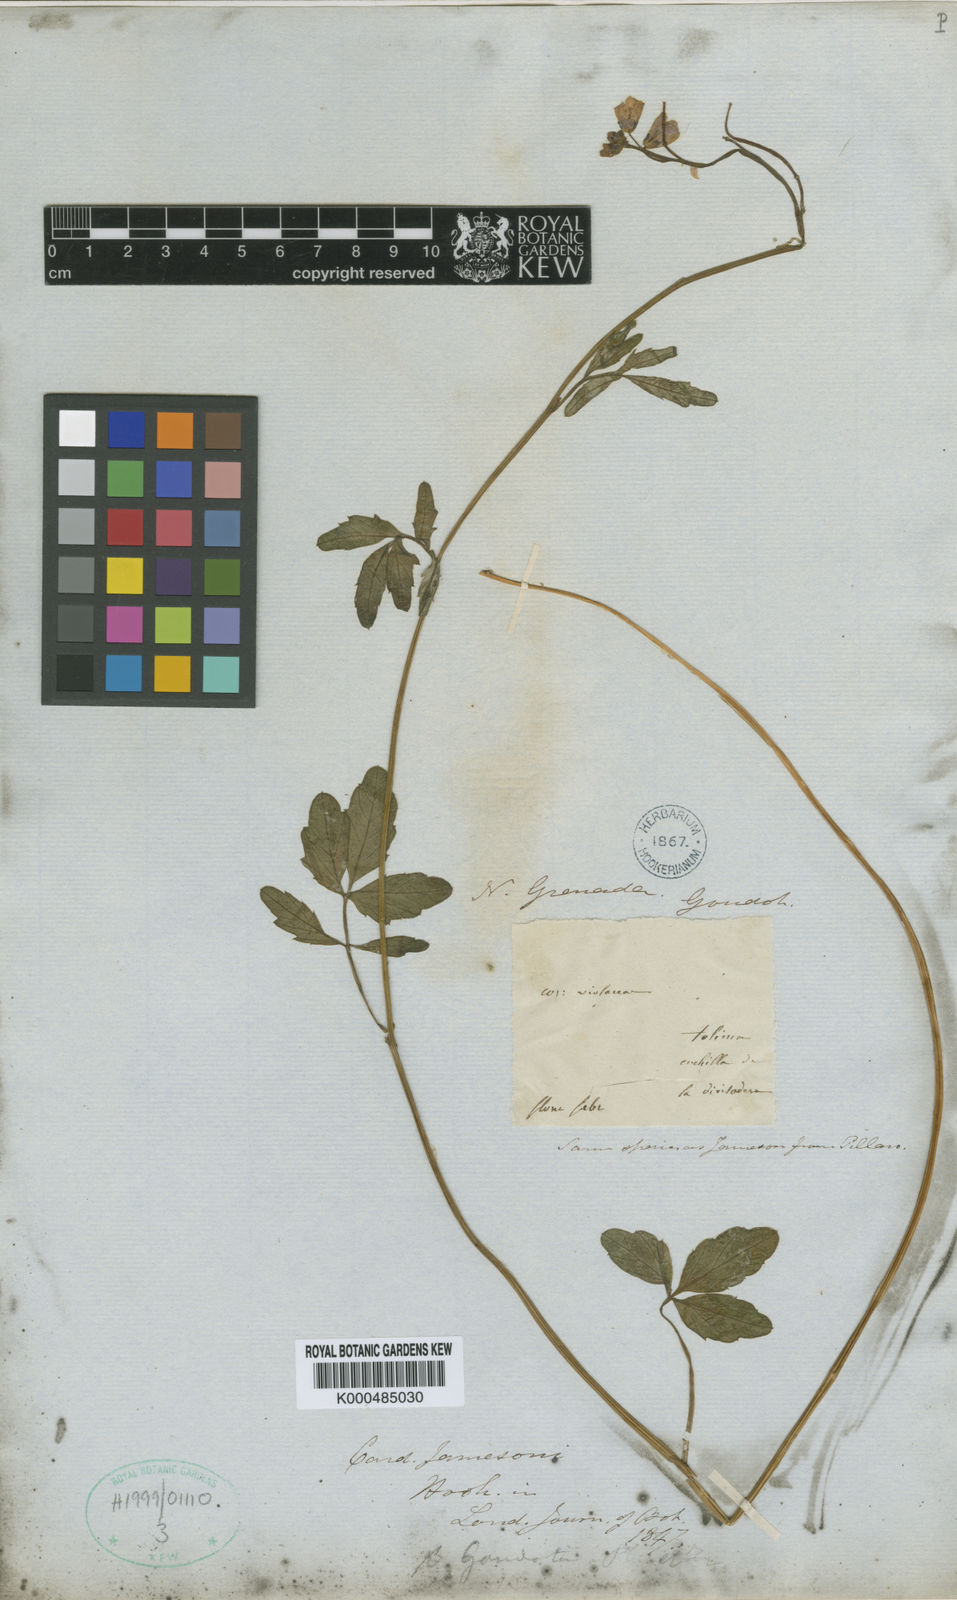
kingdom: Plantae
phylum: Tracheophyta
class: Magnoliopsida
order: Brassicales
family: Brassicaceae
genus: Cardamine
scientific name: Cardamine jamesonii
